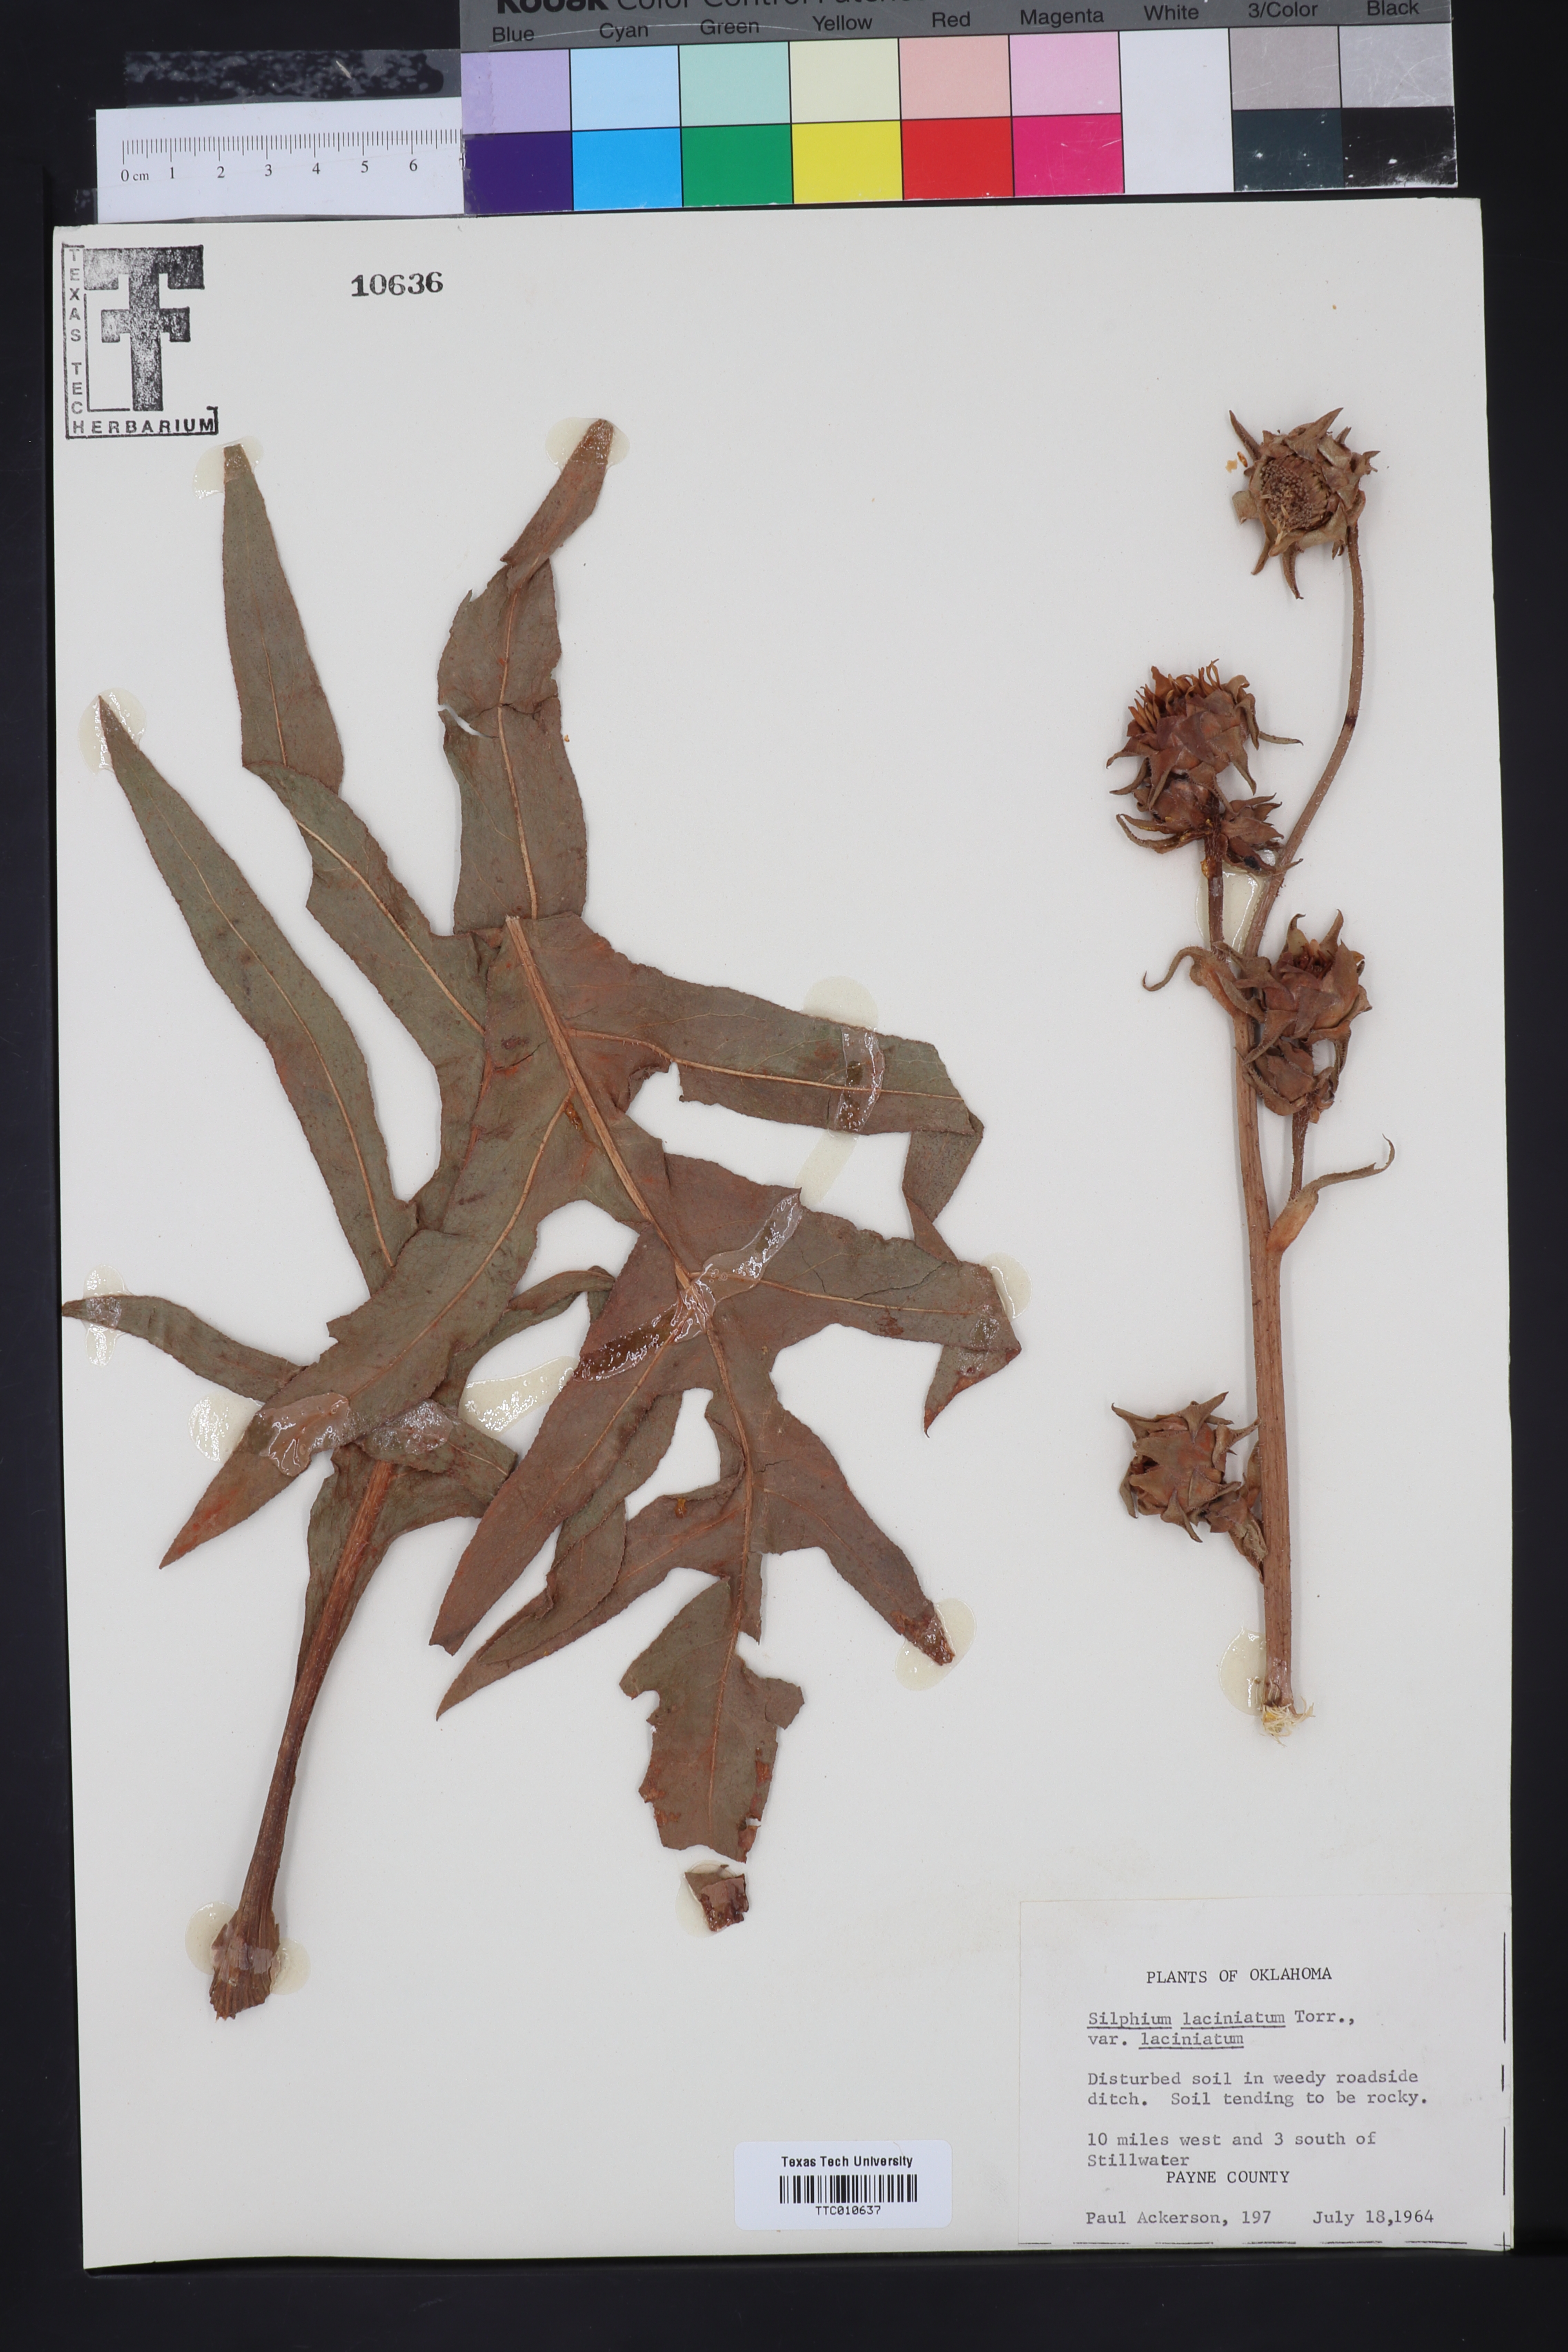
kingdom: Plantae
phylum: Tracheophyta
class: Magnoliopsida
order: Asterales
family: Asteraceae
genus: Silphium
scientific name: Silphium laciniatum
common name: Polarplant
